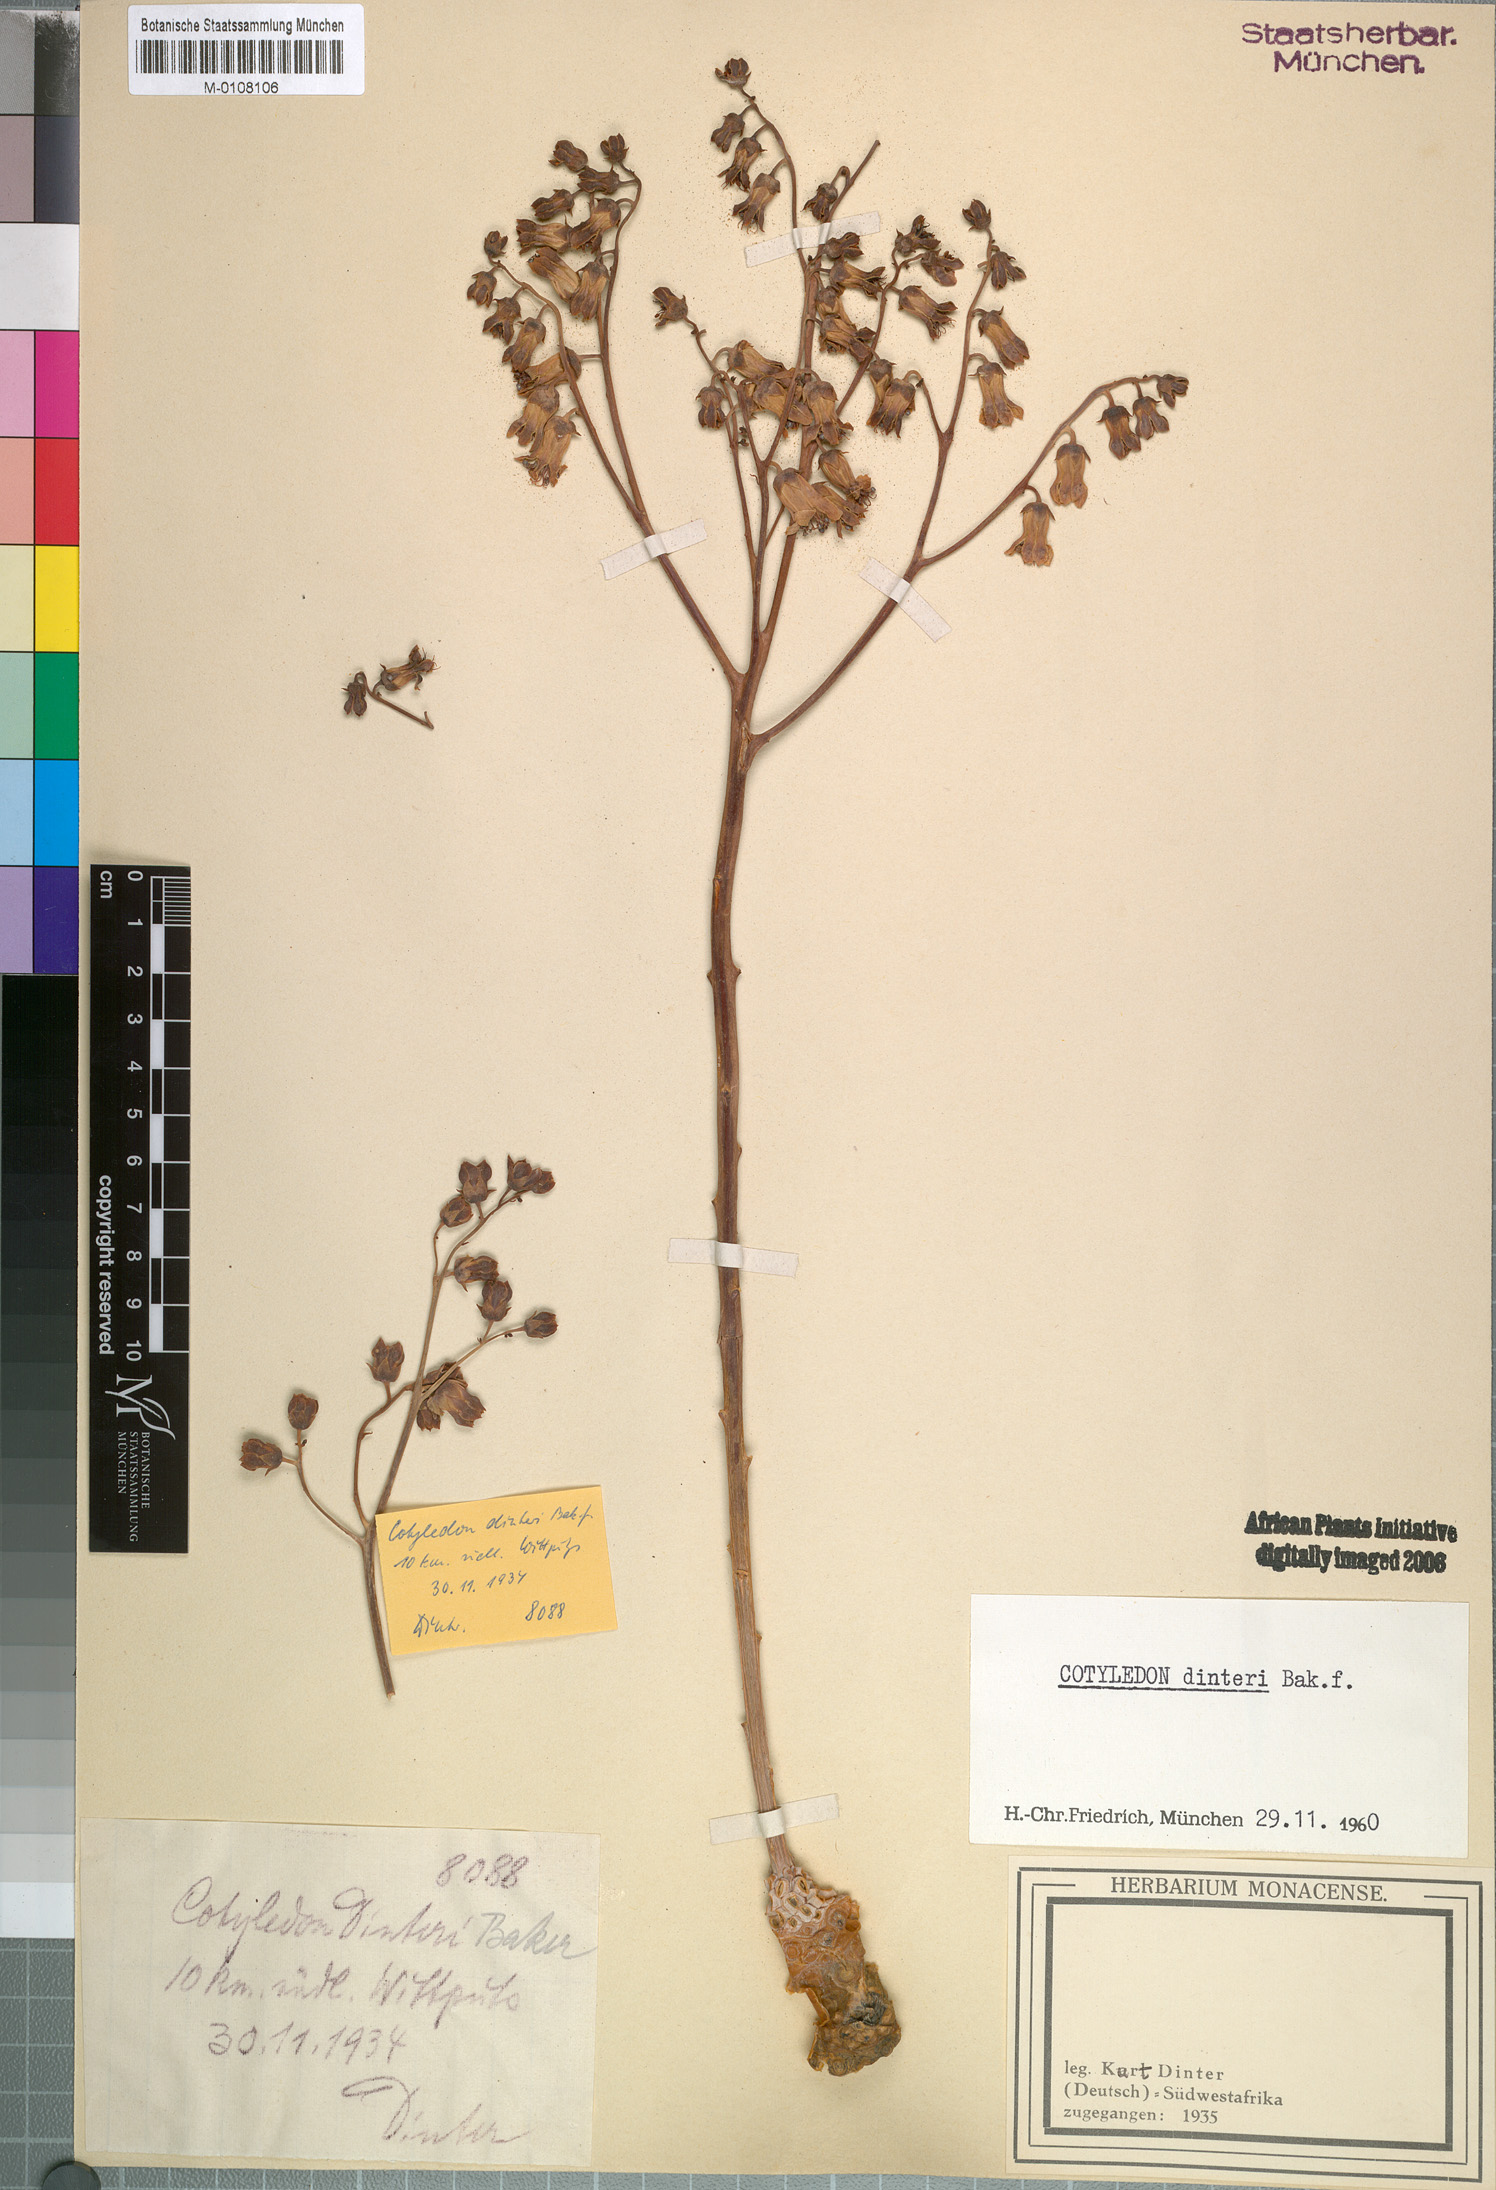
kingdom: Plantae
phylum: Tracheophyta
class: Magnoliopsida
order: Saxifragales
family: Crassulaceae
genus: Tylecodon
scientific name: Tylecodon wallichii
